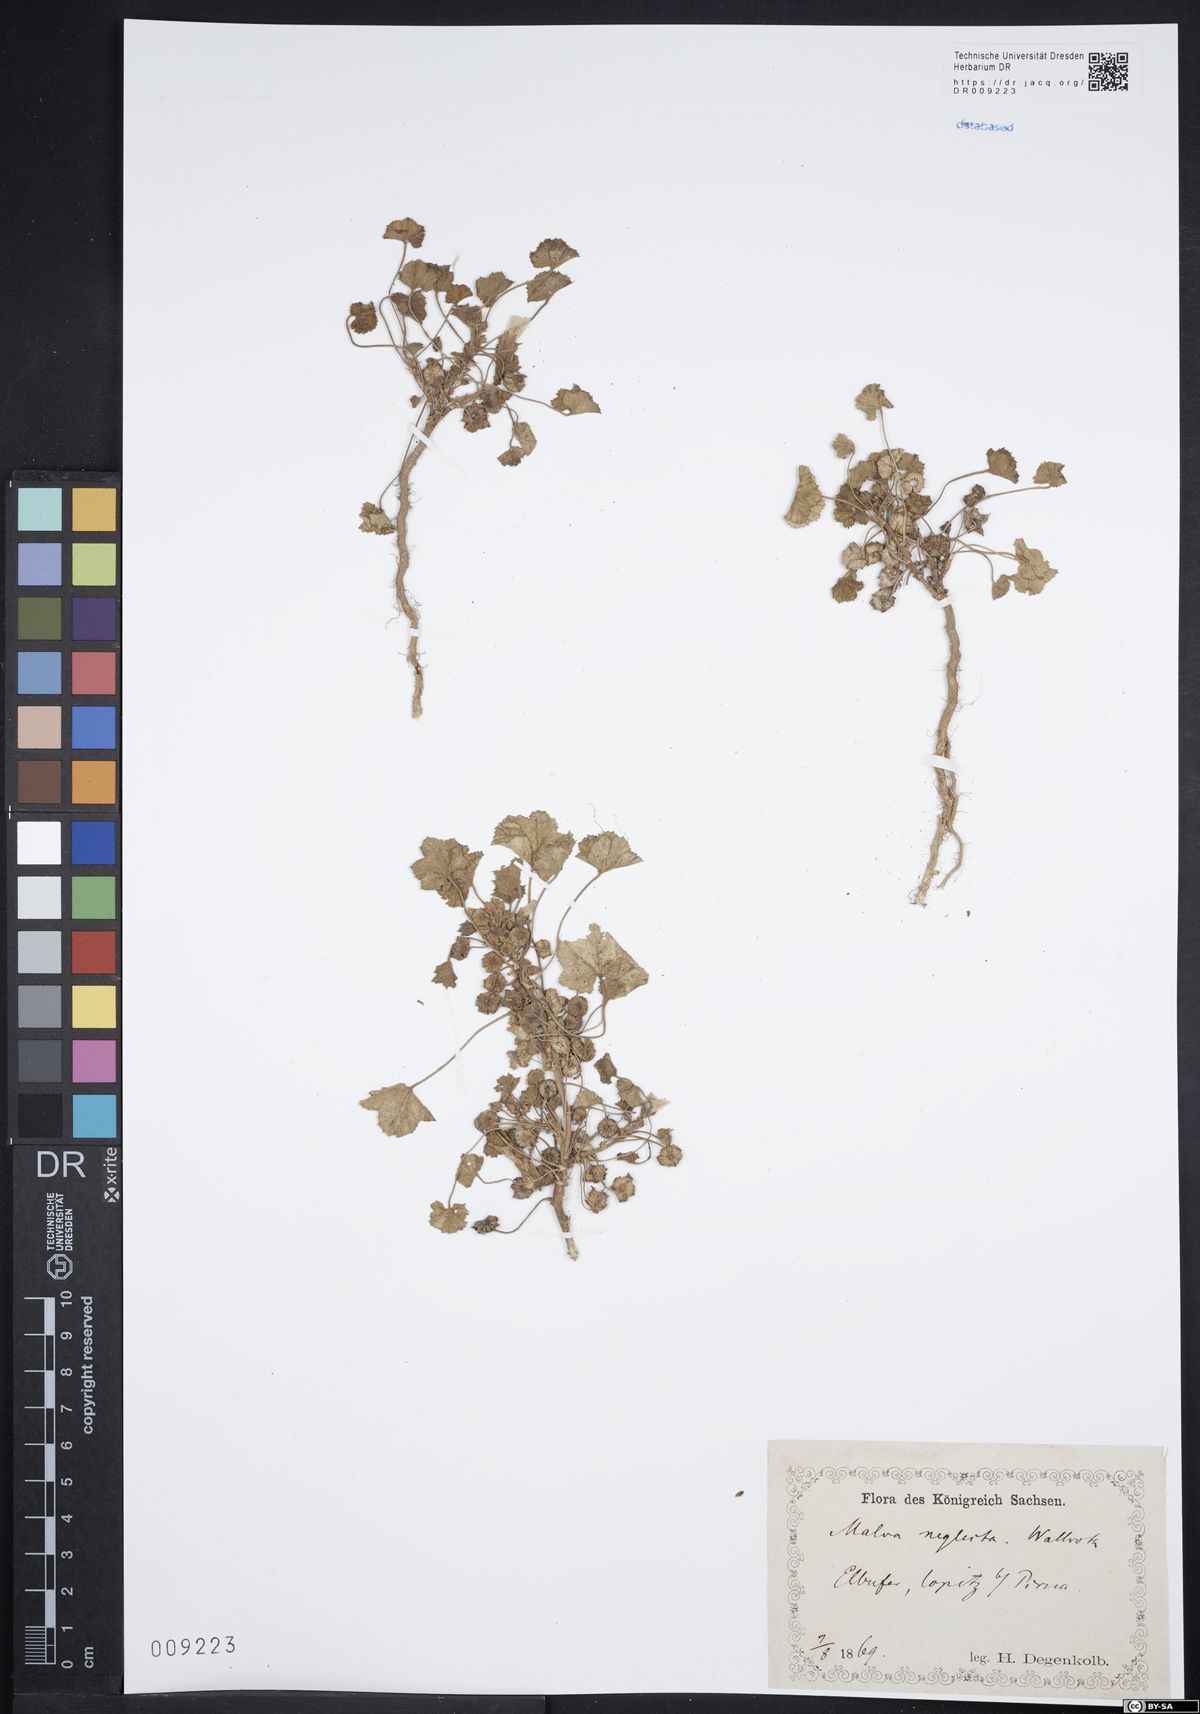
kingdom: Plantae
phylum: Tracheophyta
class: Magnoliopsida
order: Malvales
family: Malvaceae
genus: Malva
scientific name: Malva neglecta
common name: Common mallow
